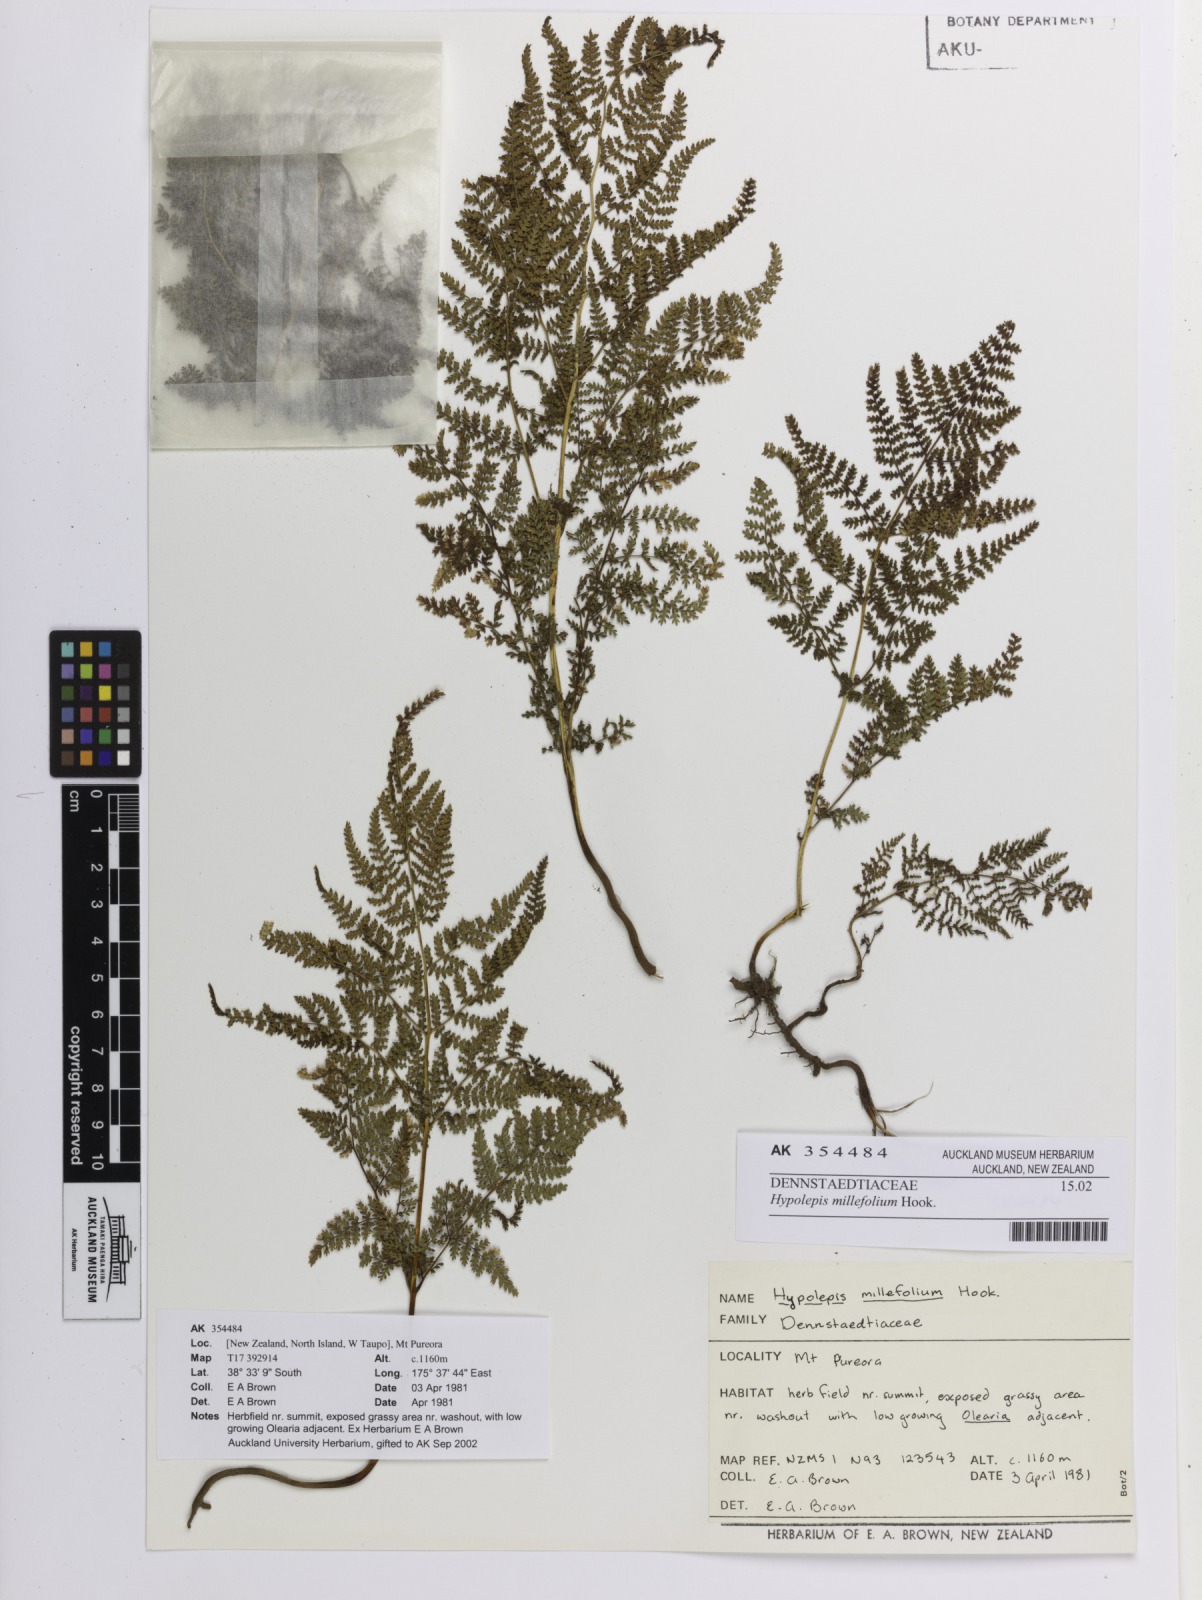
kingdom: Plantae
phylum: Tracheophyta
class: Polypodiopsida
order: Polypodiales
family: Dennstaedtiaceae
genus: Hypolepis
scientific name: Hypolepis millefolium
